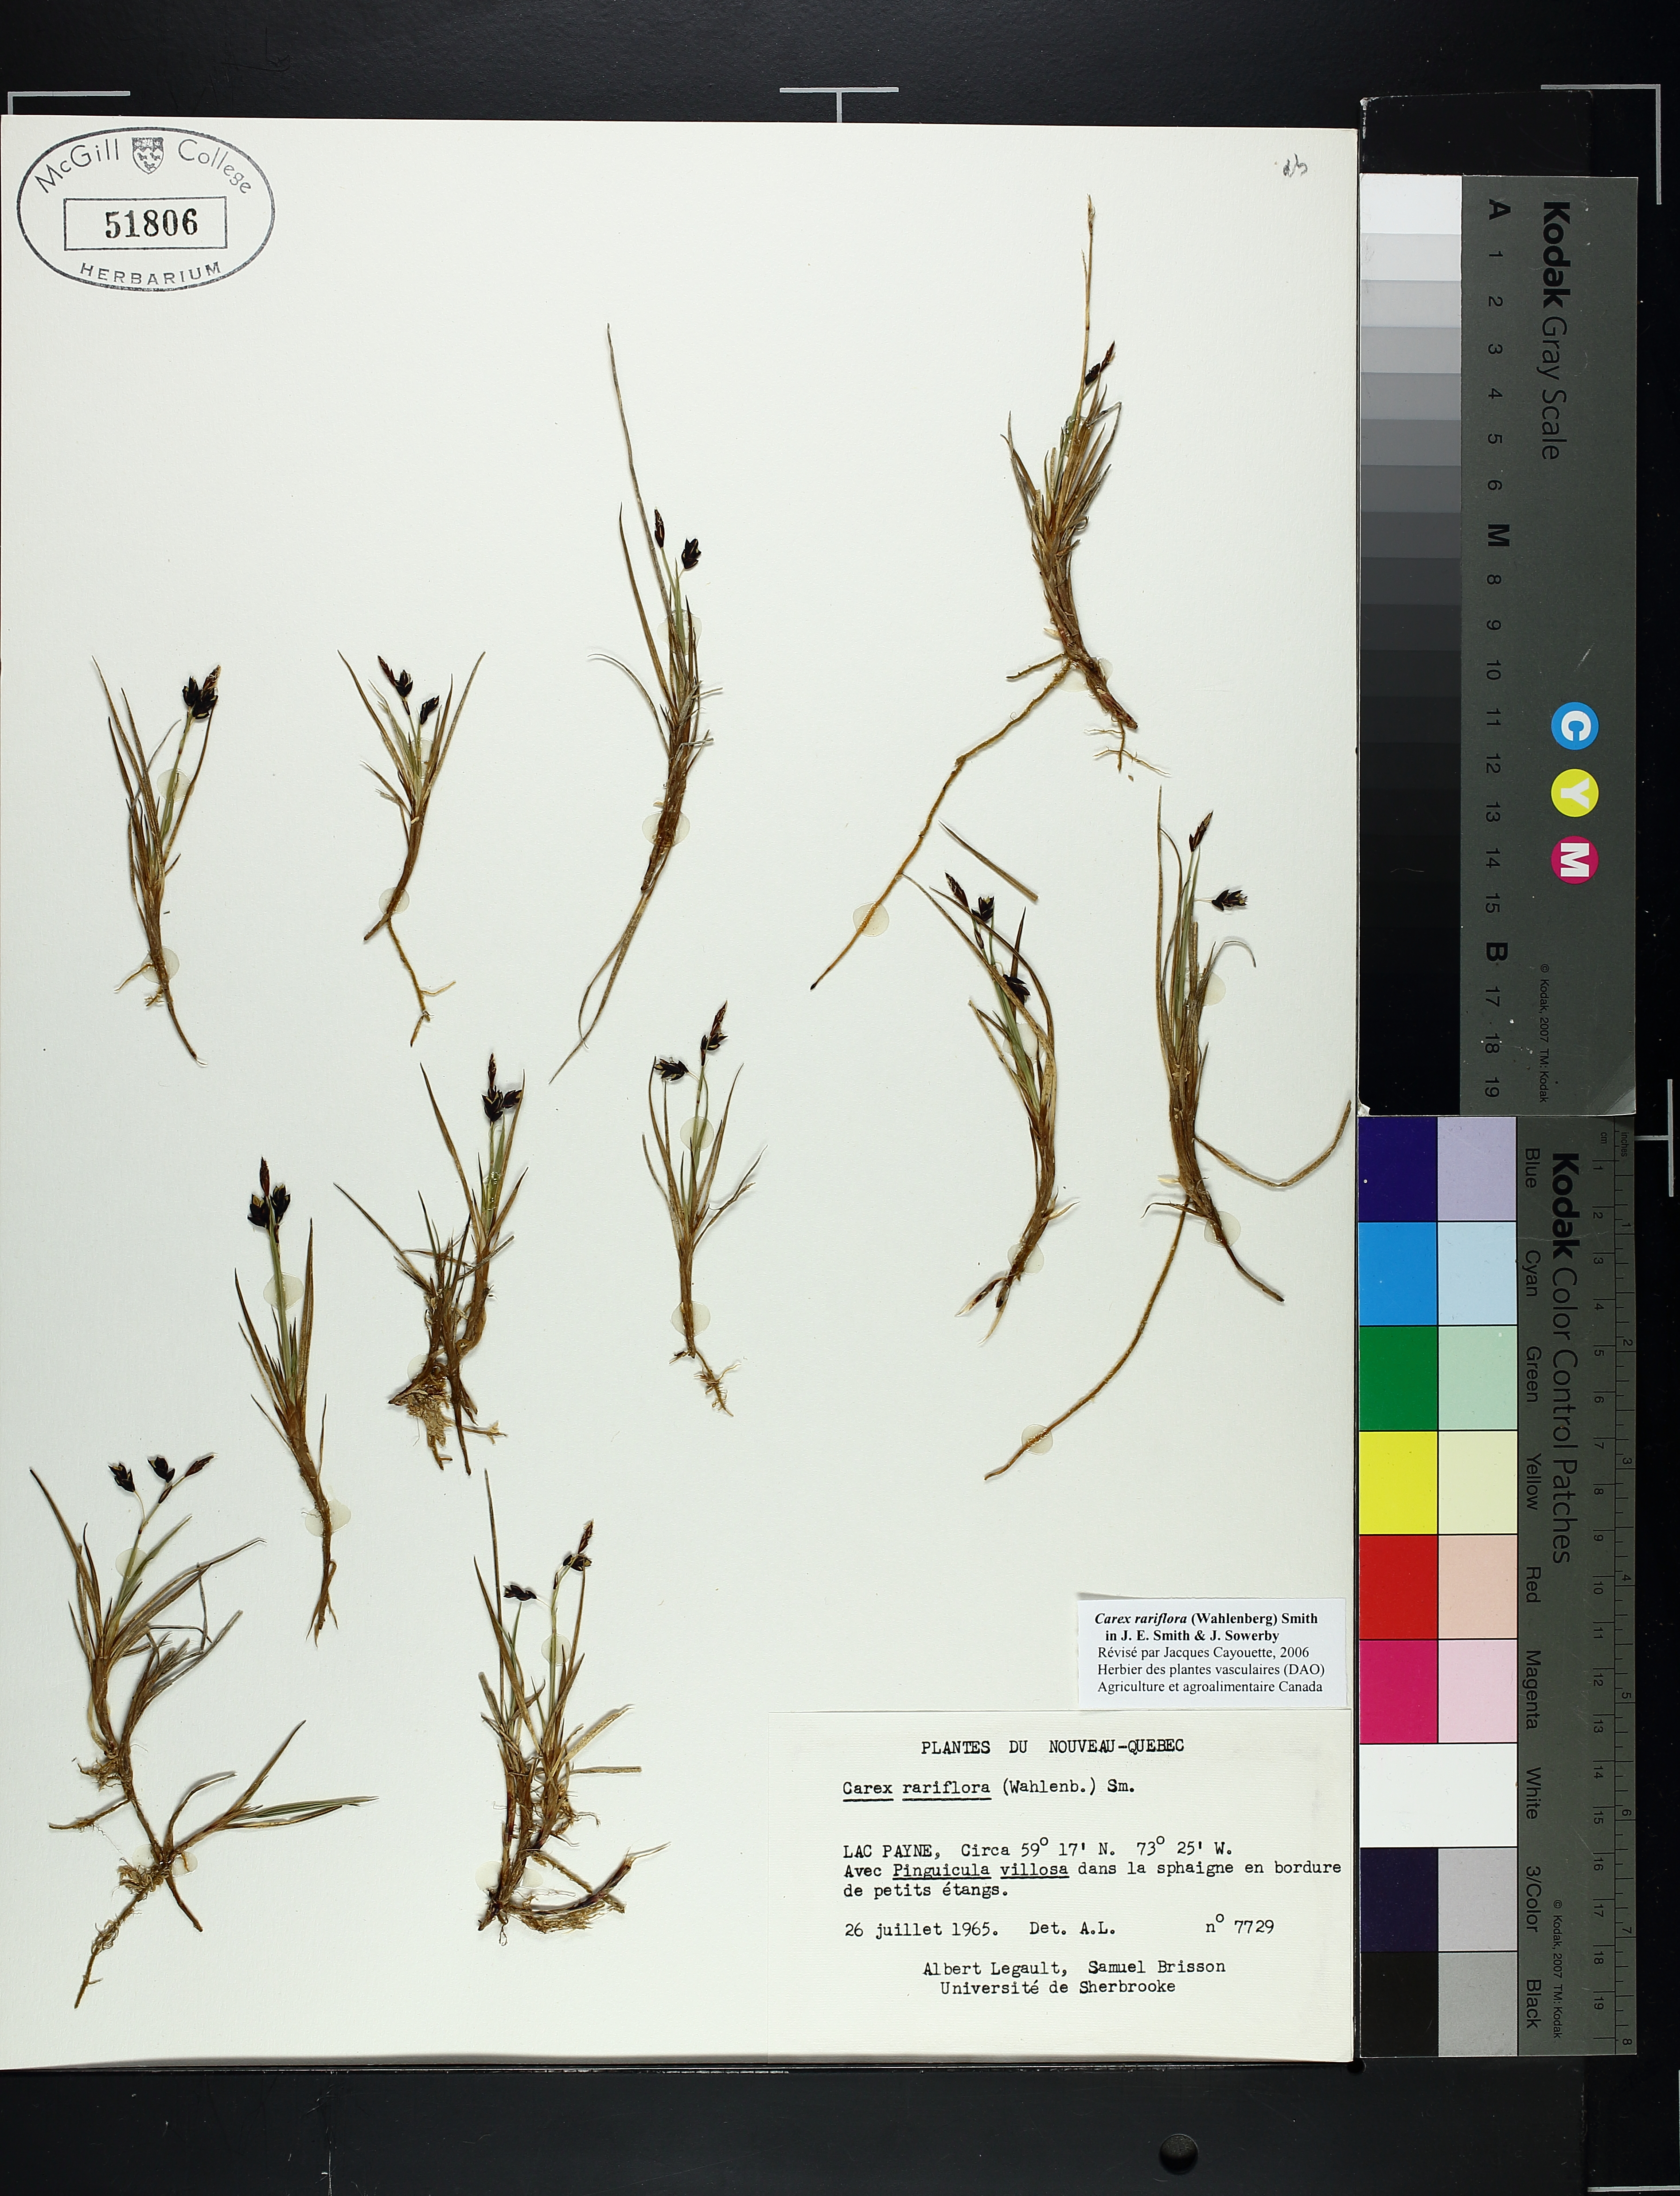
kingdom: Plantae
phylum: Tracheophyta
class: Liliopsida
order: Poales
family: Cyperaceae
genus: Carex
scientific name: Carex rariflora
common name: Loose-flowered alpine sedge
